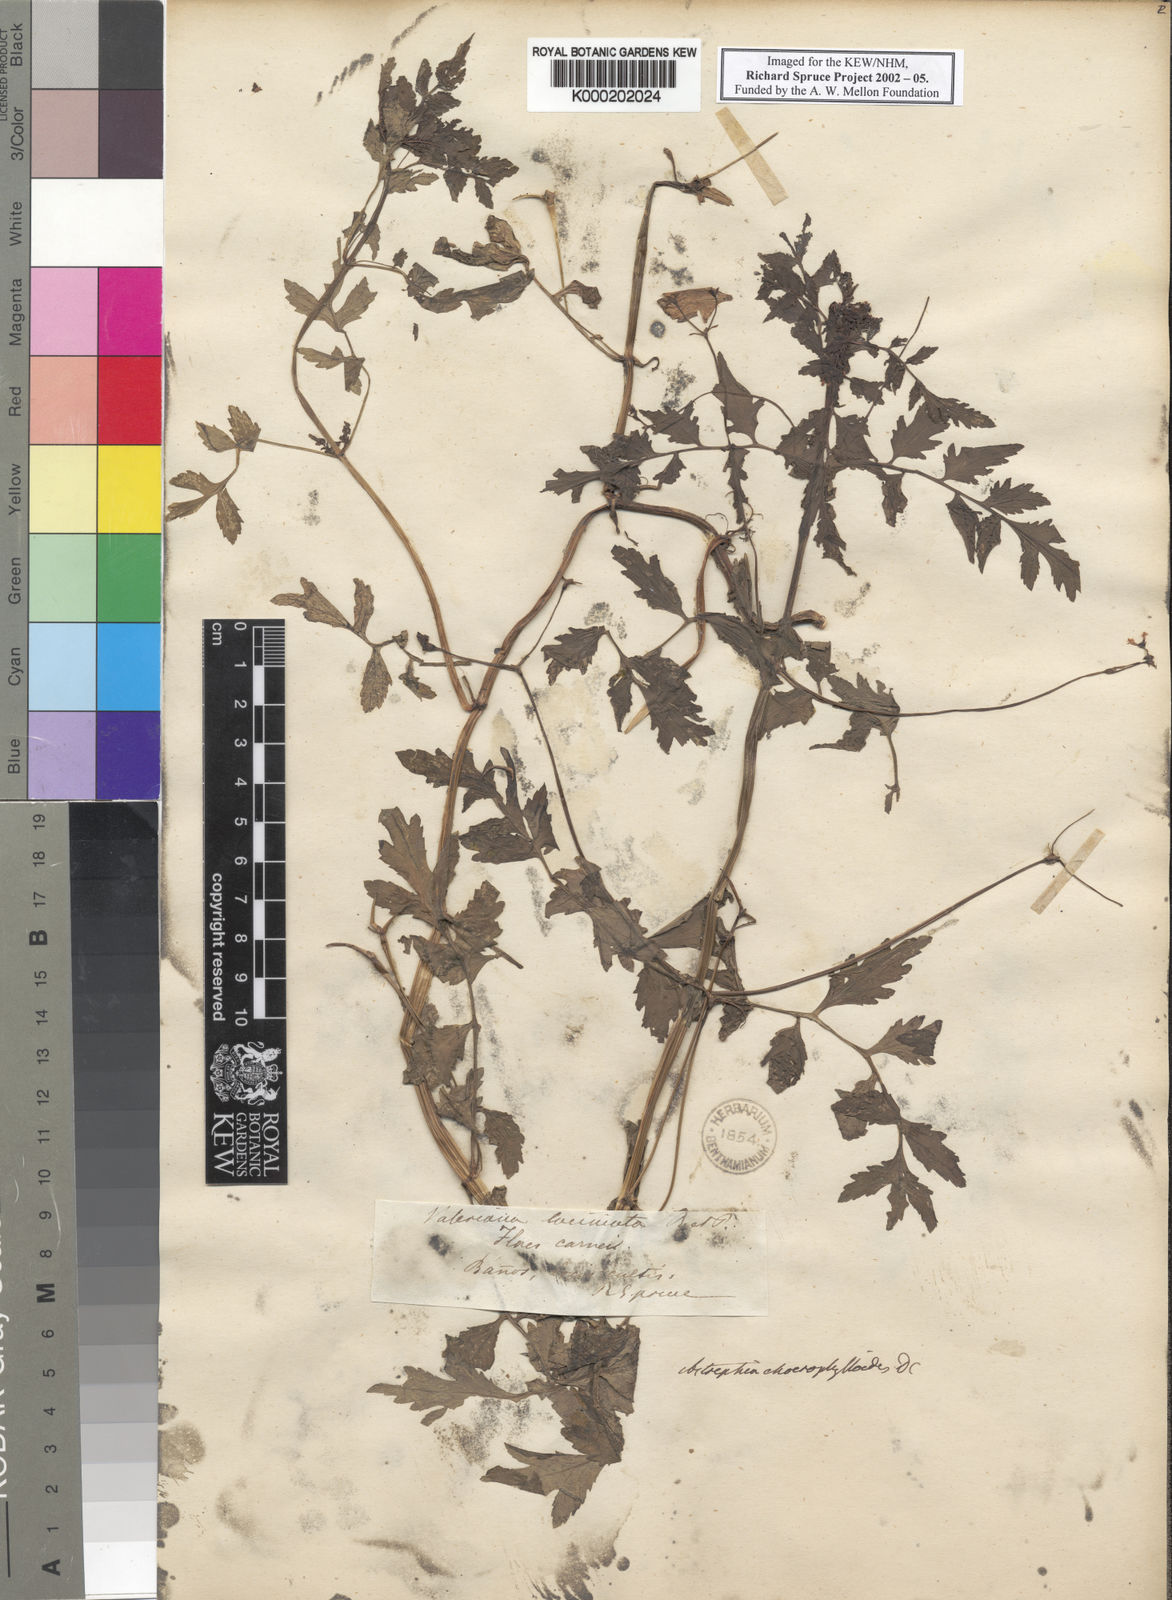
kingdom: Plantae
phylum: Tracheophyta
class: Magnoliopsida
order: Dipsacales
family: Caprifoliaceae
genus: Valeriana
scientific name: Valeriana chaerophylloides
